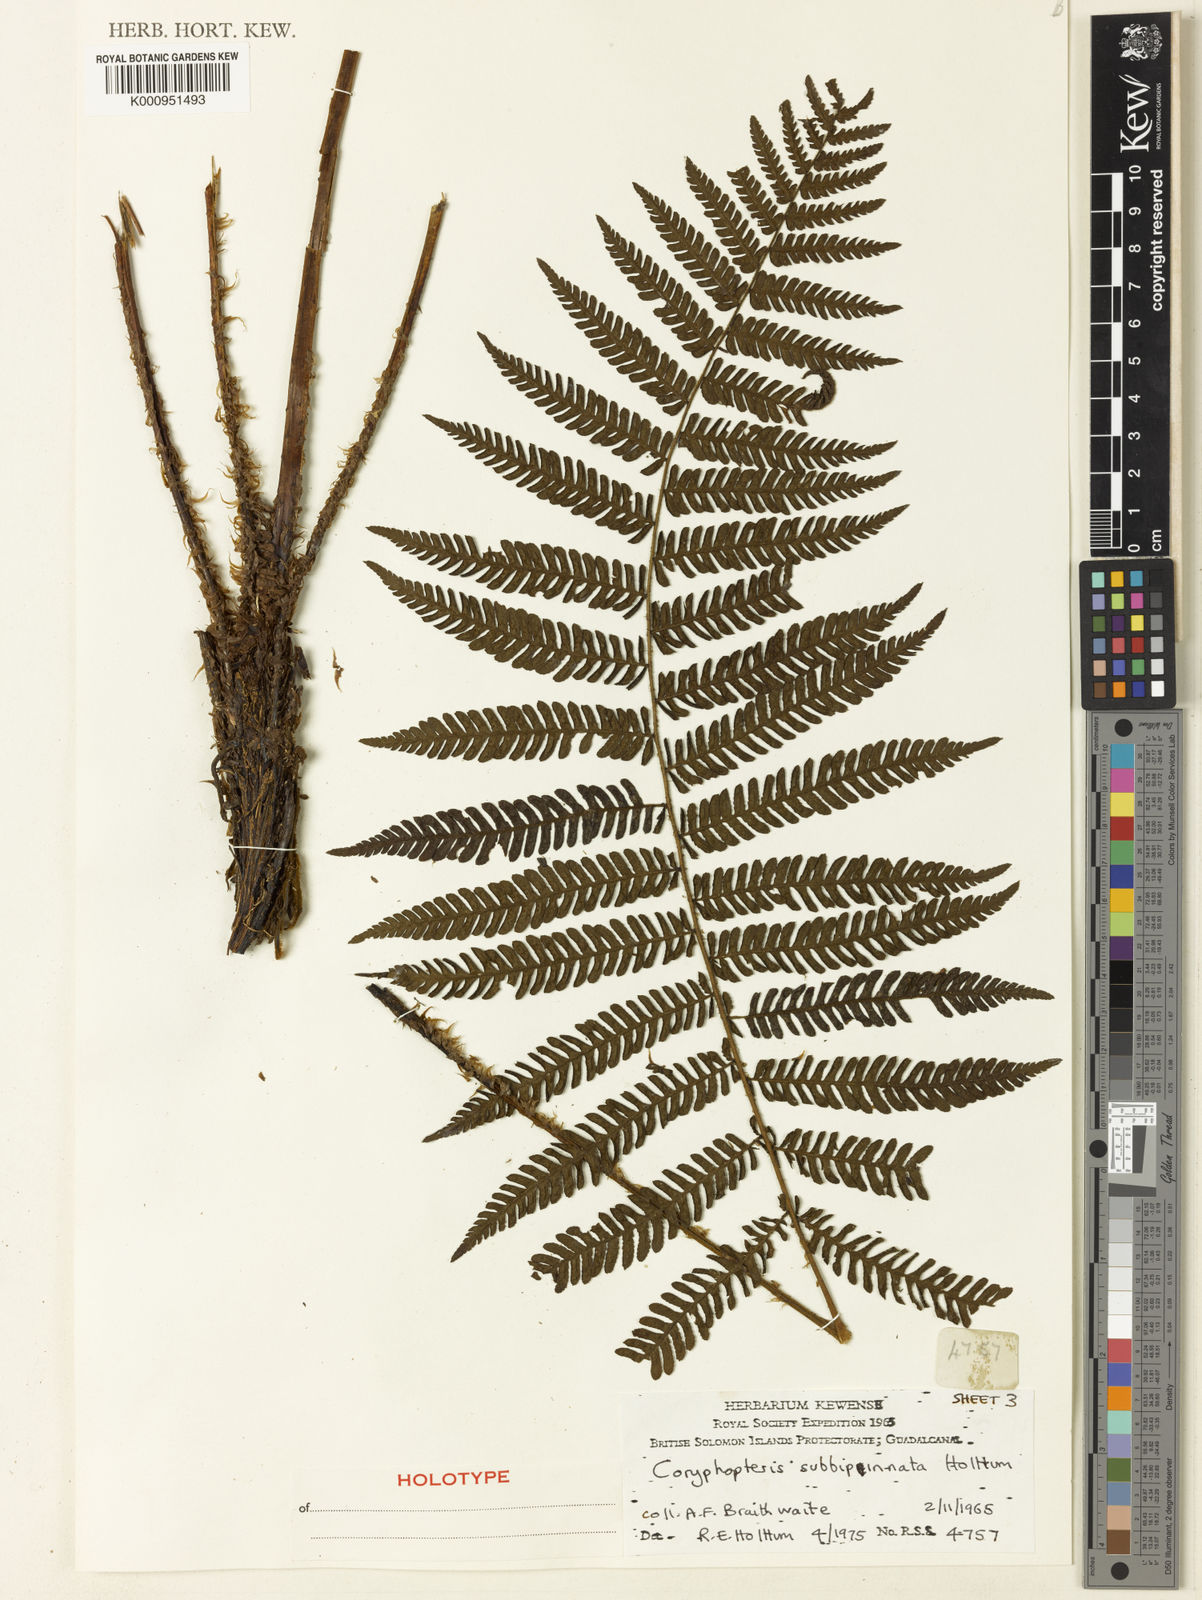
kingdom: Plantae
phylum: Tracheophyta
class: Polypodiopsida
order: Polypodiales
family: Thelypteridaceae
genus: Coryphopteris
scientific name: Coryphopteris subbipinnata
